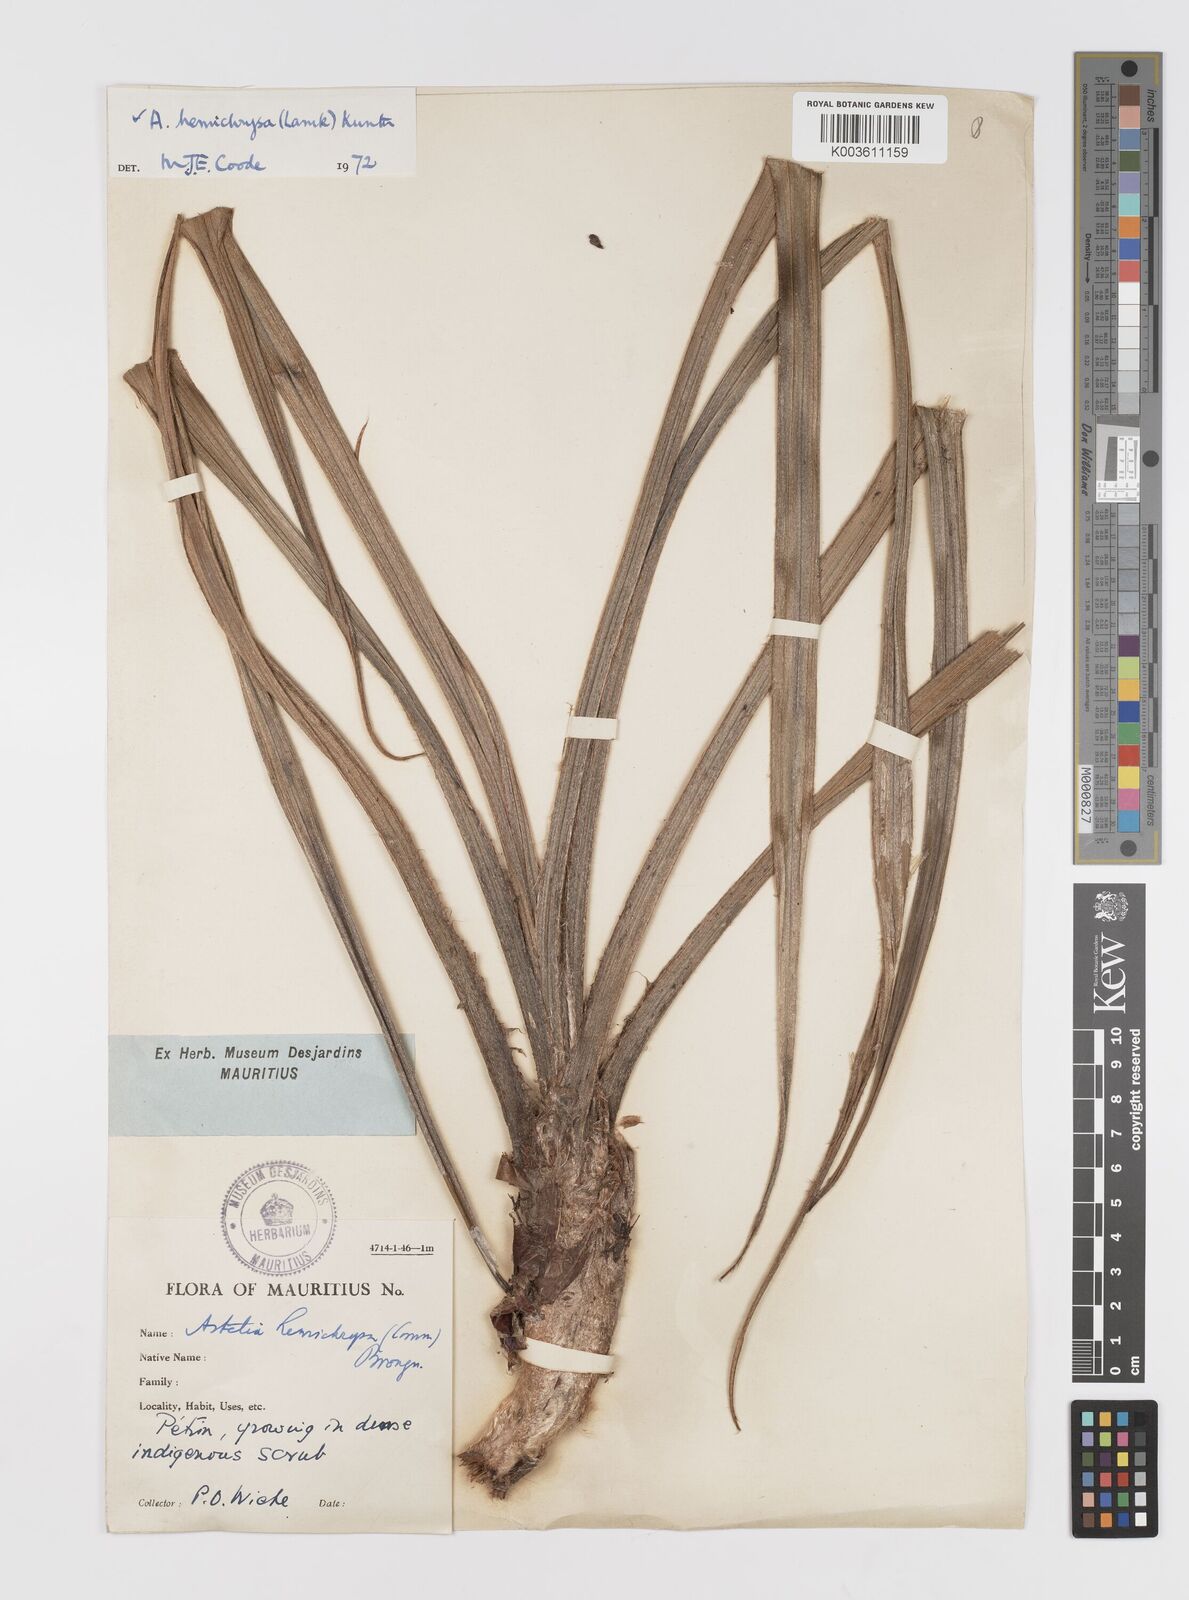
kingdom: Plantae
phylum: Tracheophyta
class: Liliopsida
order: Asparagales
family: Asteliaceae
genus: Astelia
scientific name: Astelia hemichrysa
